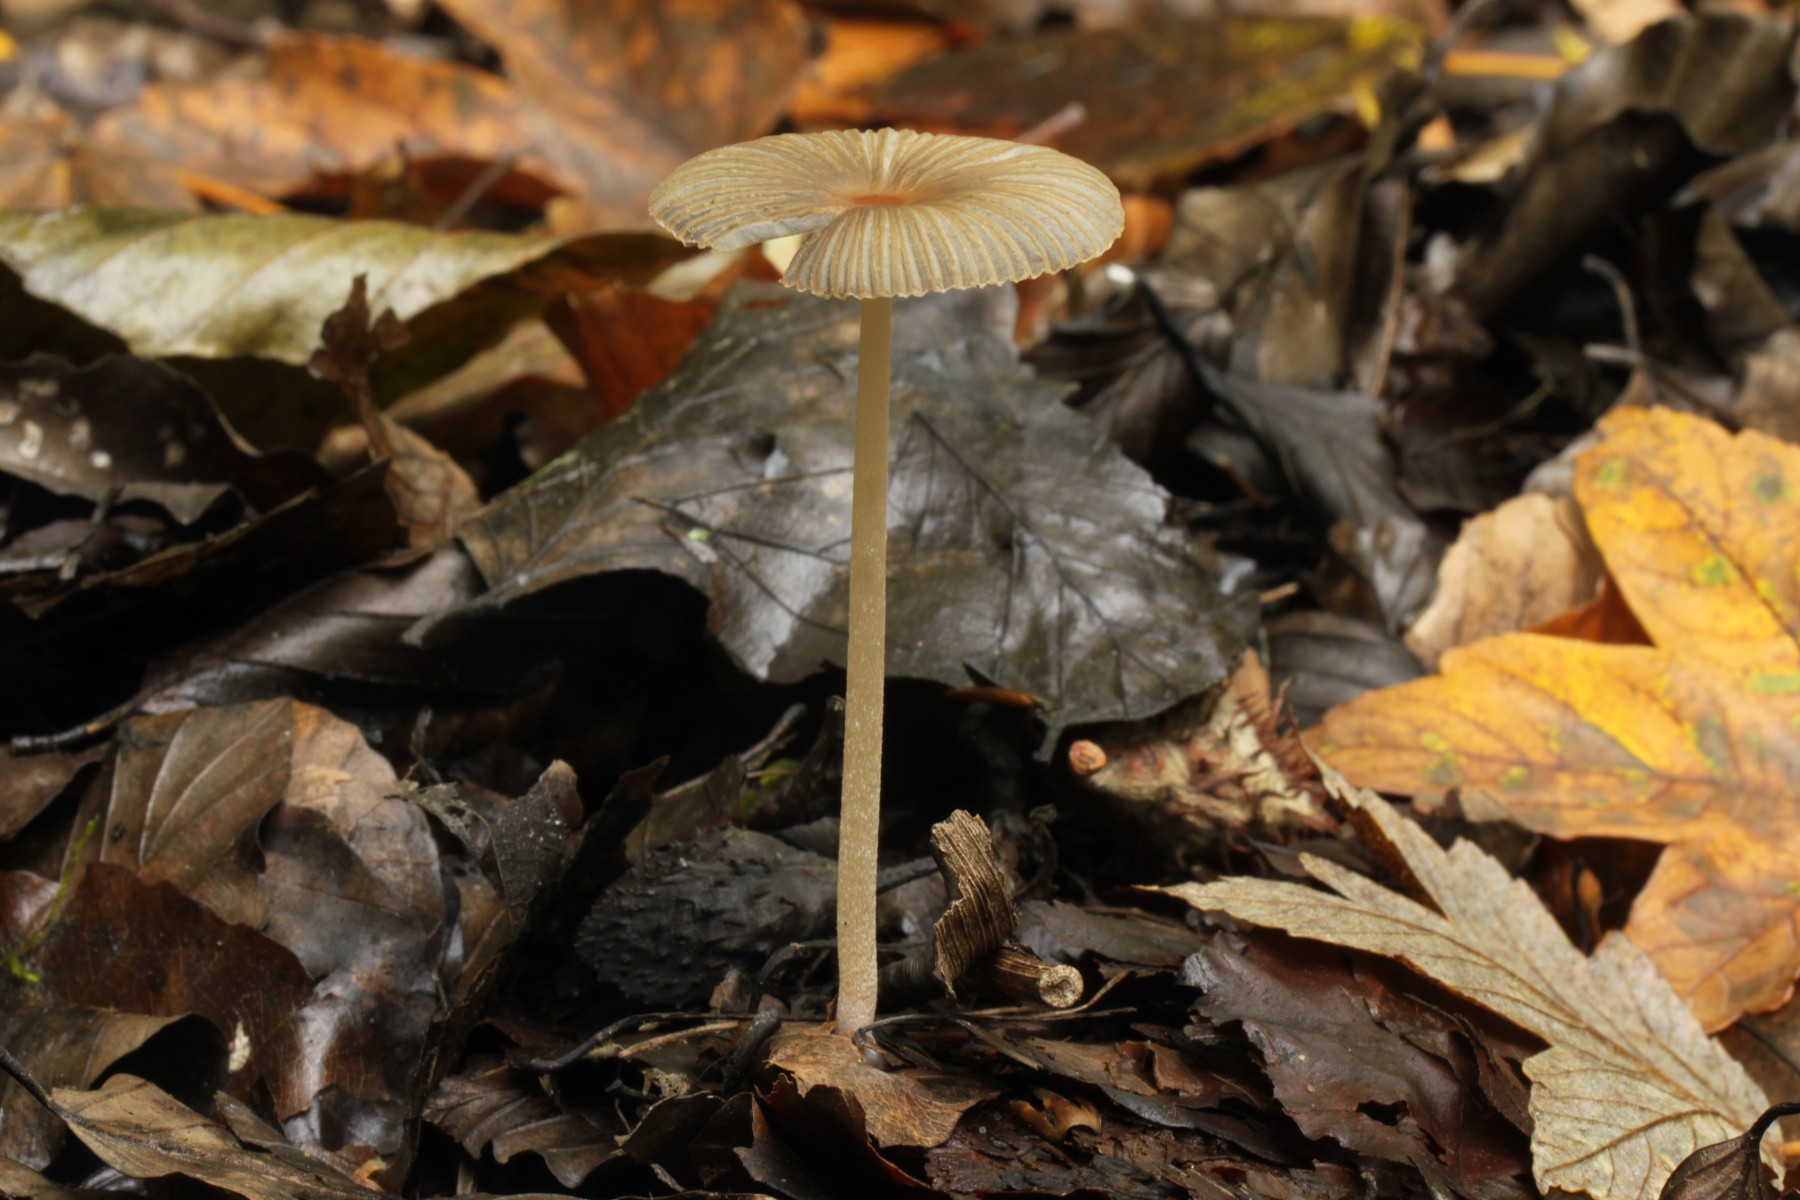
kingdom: Fungi
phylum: Basidiomycota
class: Agaricomycetes
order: Agaricales
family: Psathyrellaceae
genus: Parasola
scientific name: Parasola lactea
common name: glat hjulhat
